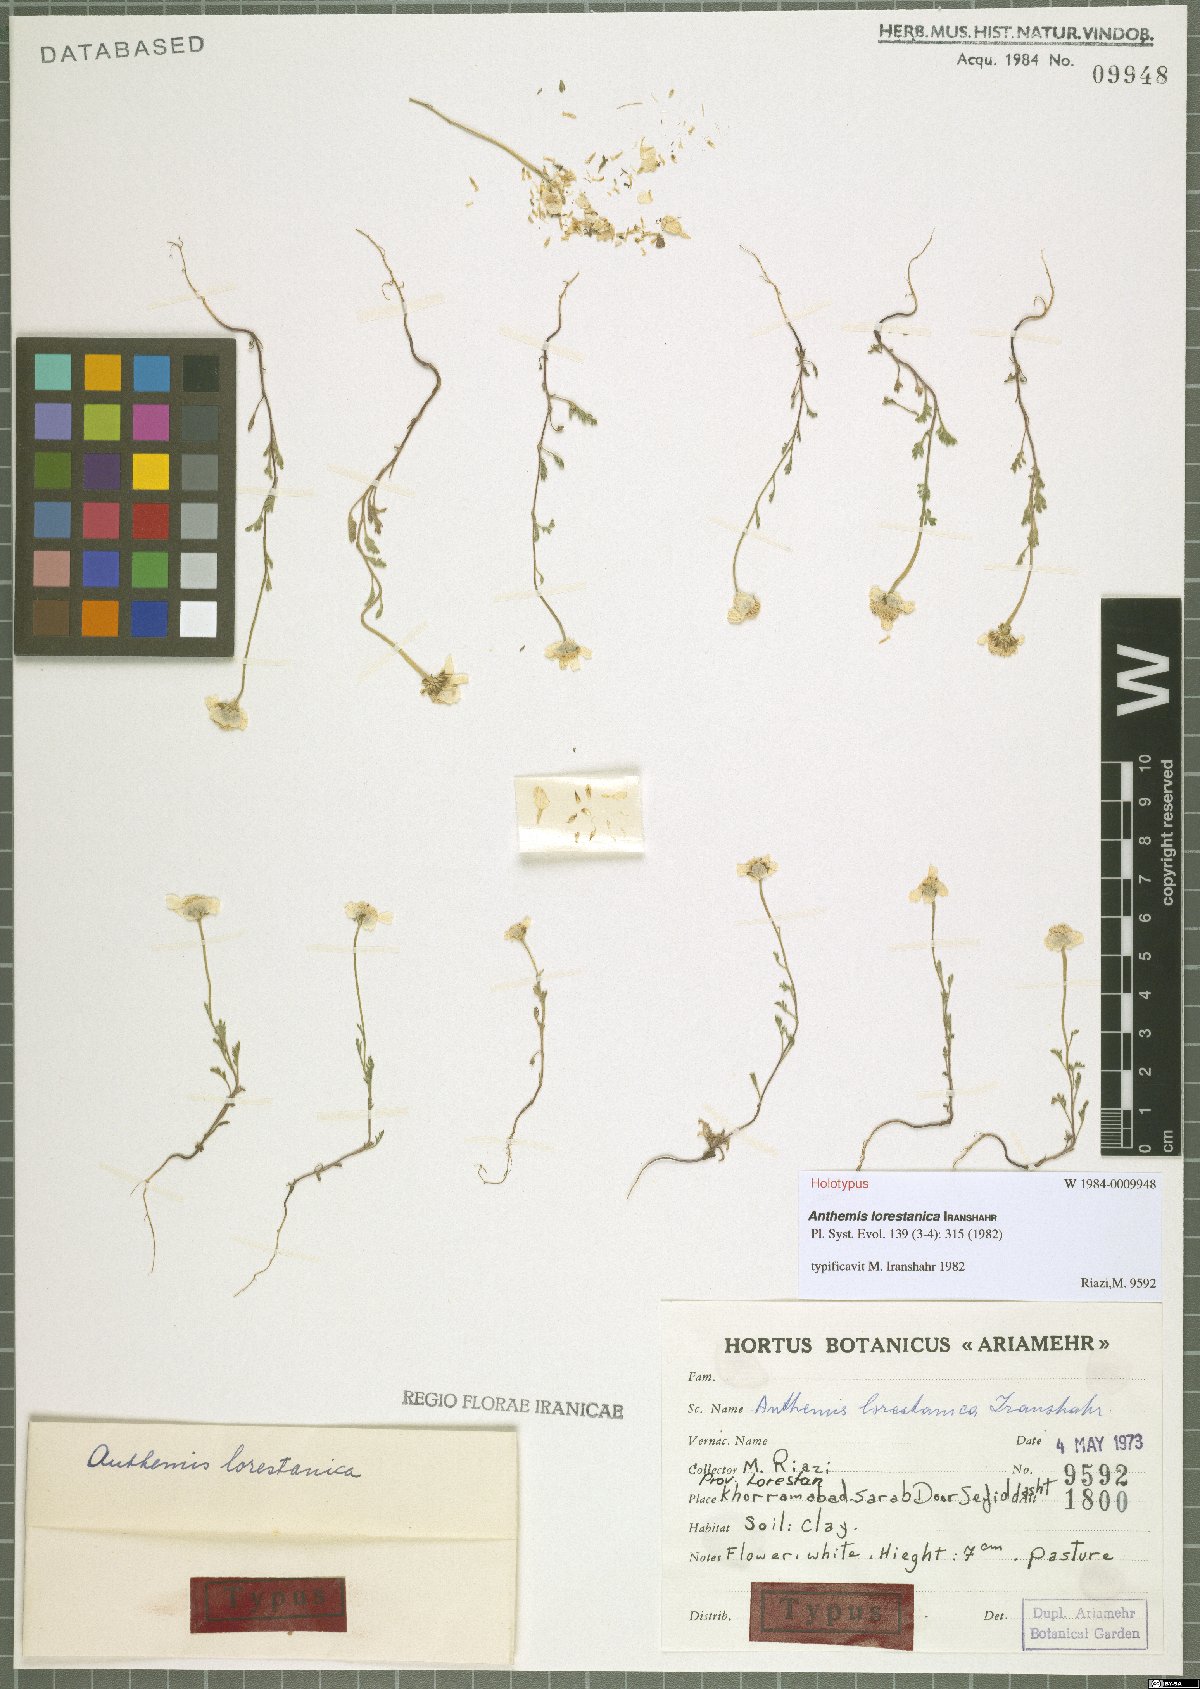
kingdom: Plantae
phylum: Tracheophyta
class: Magnoliopsida
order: Asterales
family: Asteraceae
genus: Anthemis
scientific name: Anthemis lorestanica
